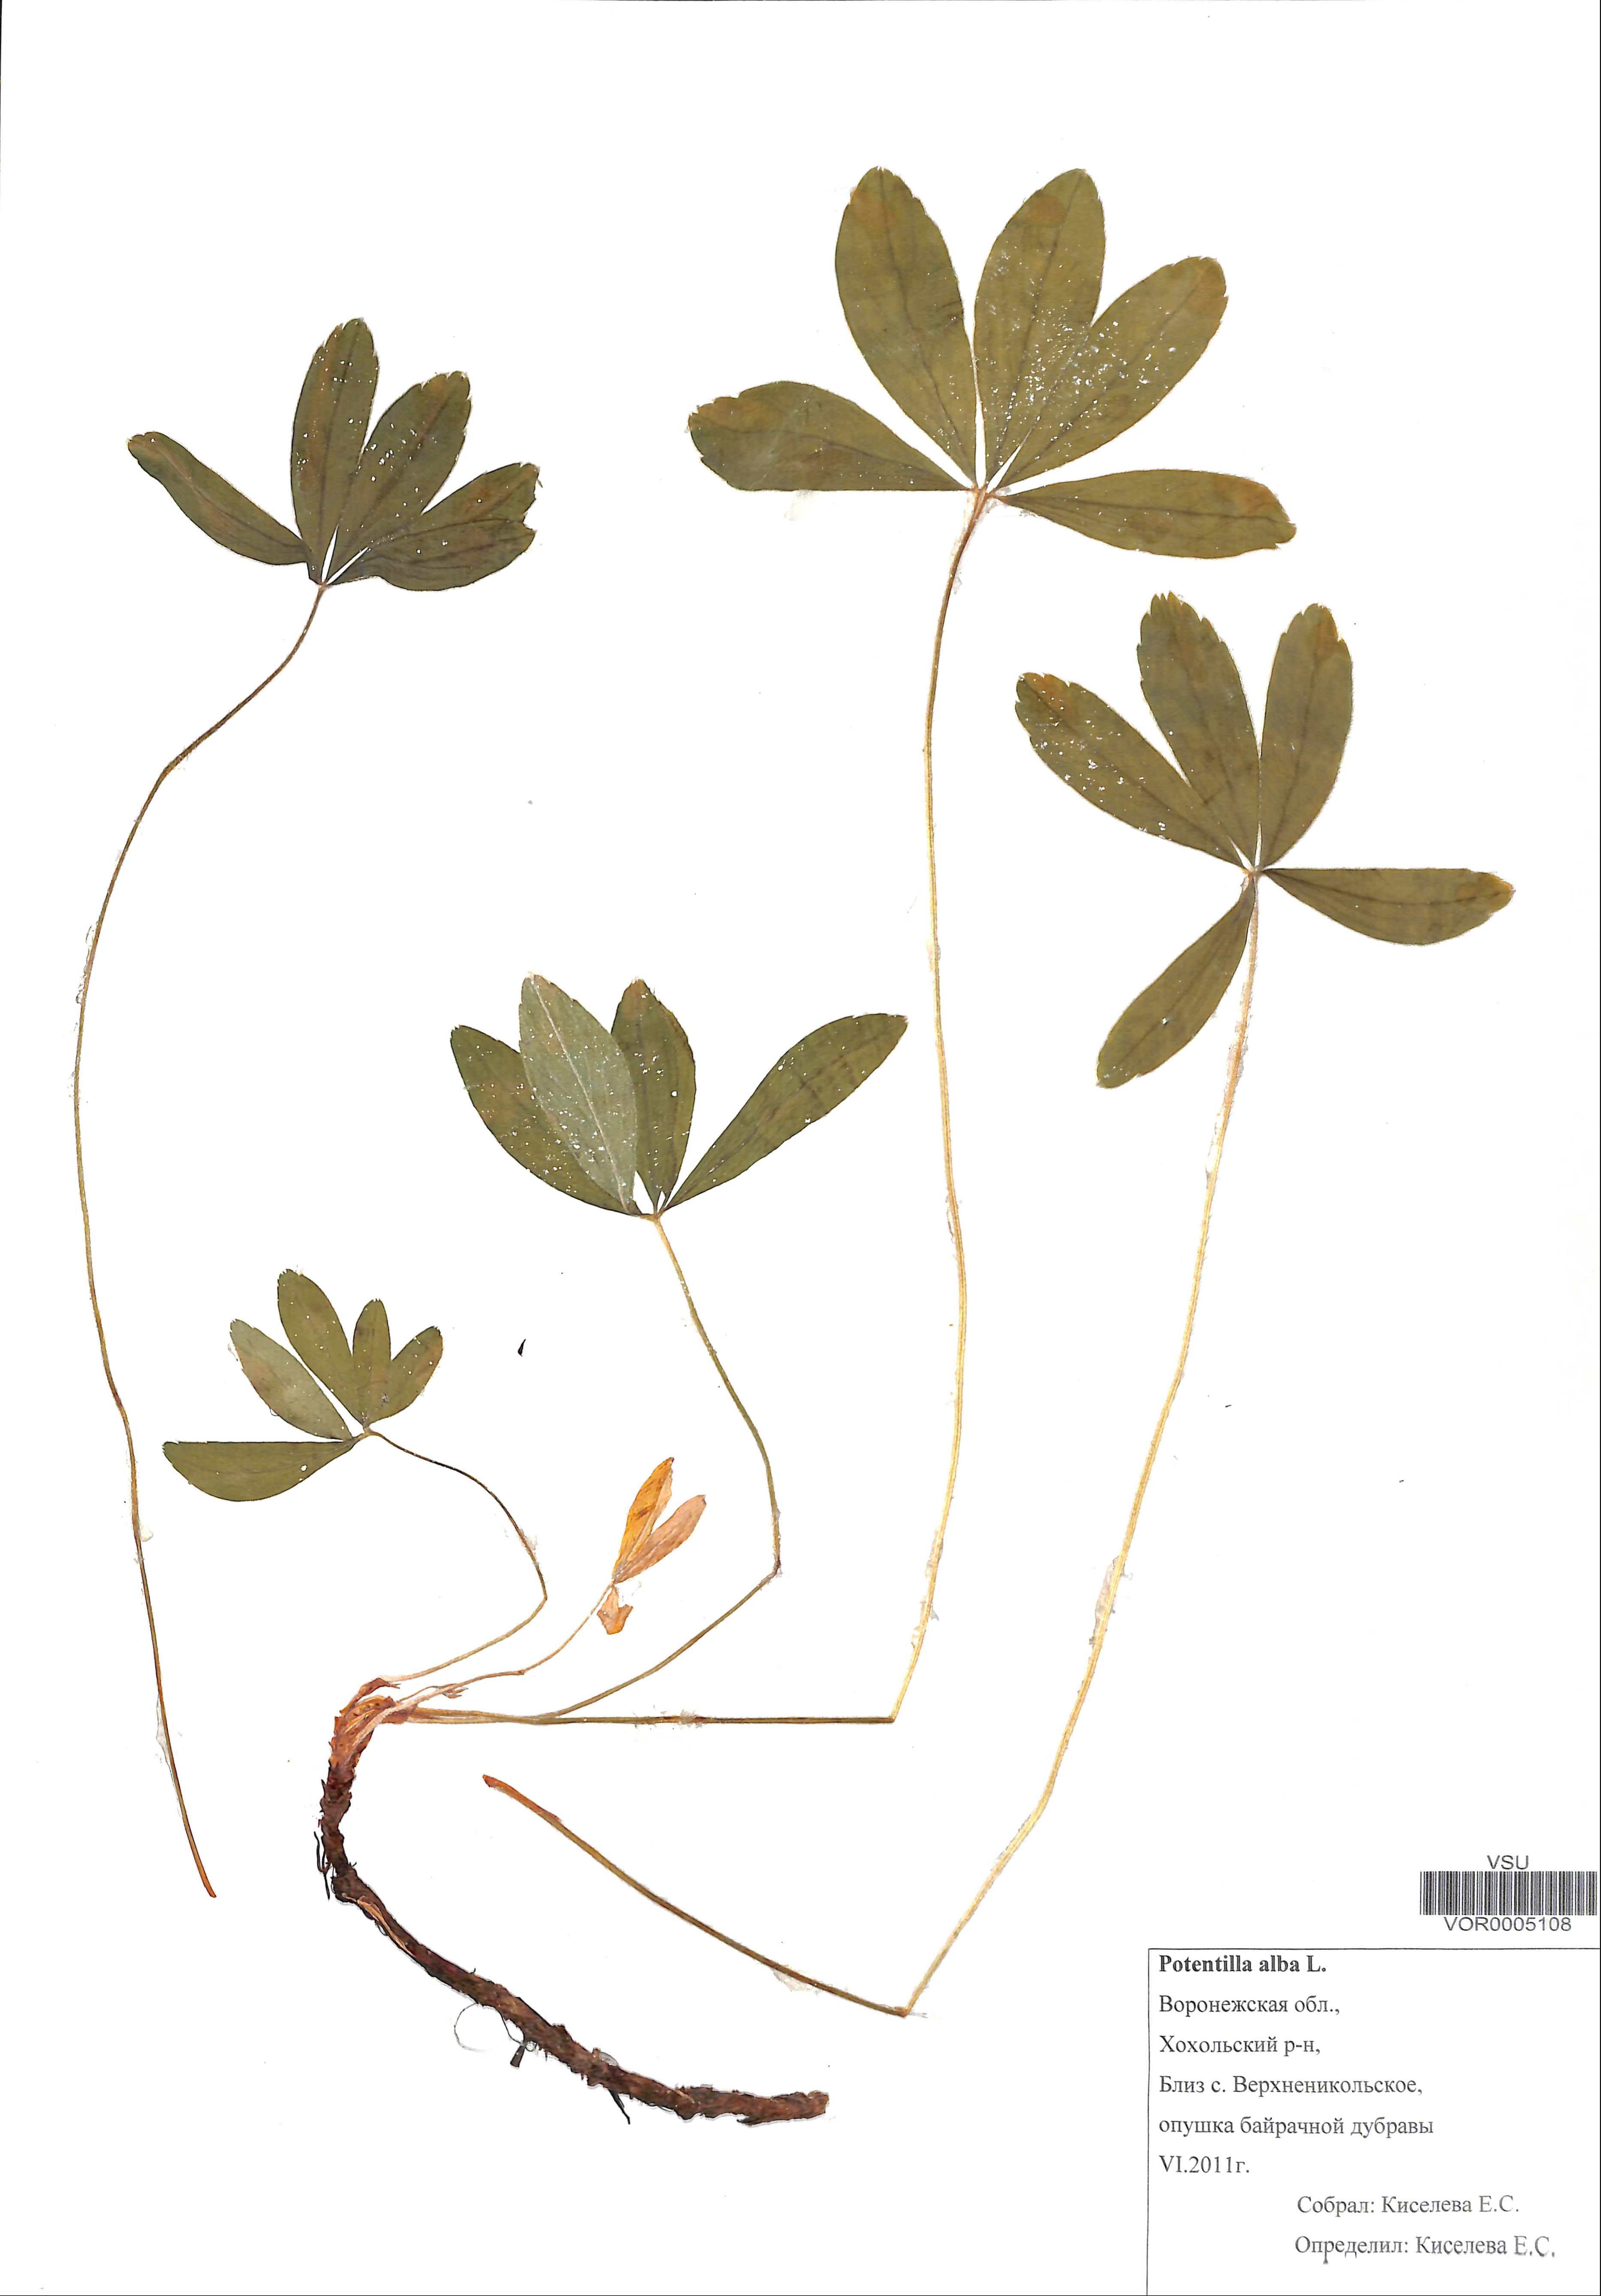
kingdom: Plantae
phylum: Tracheophyta
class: Magnoliopsida
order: Rosales
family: Rosaceae
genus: Potentilla
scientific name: Potentilla alba
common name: White cinquefoil
